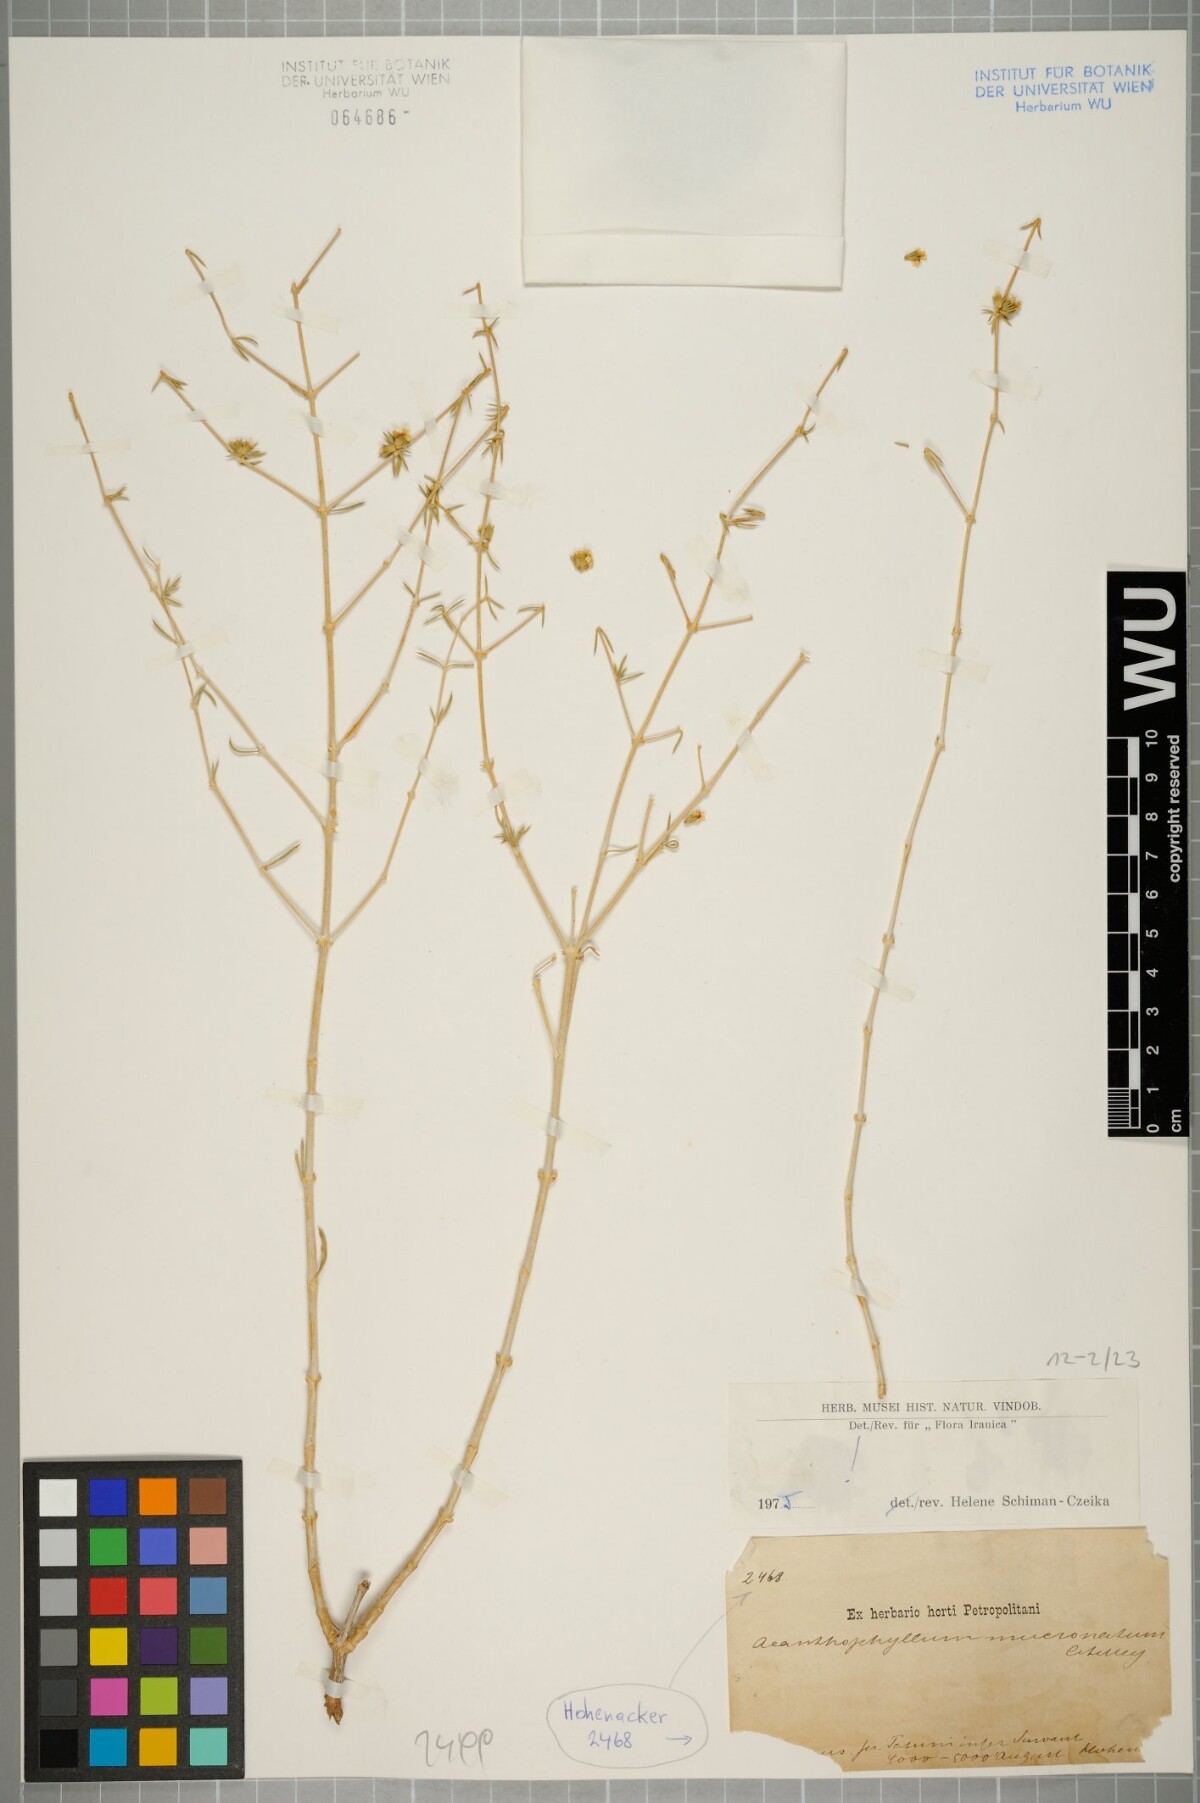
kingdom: Plantae
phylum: Tracheophyta
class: Magnoliopsida
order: Caryophyllales
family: Caryophyllaceae
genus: Acanthophyllum
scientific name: Acanthophyllum mucronatum
